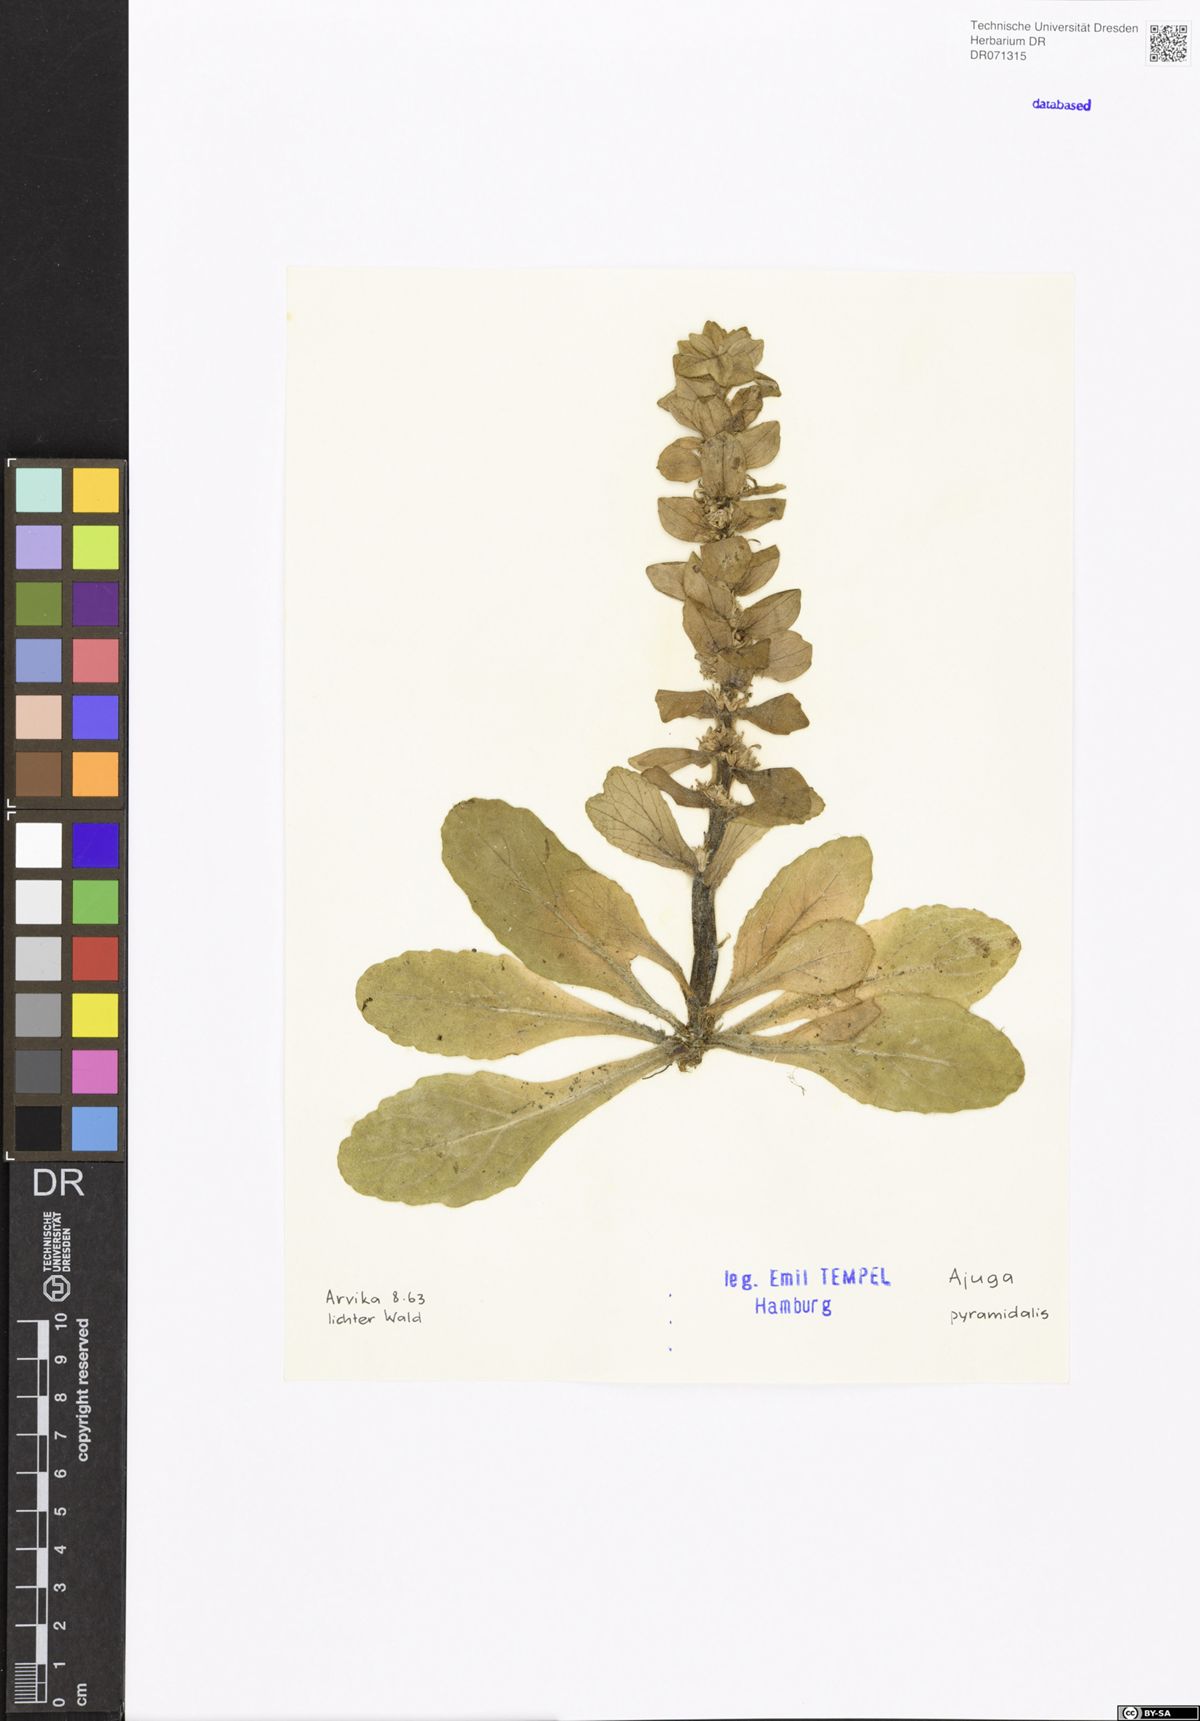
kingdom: Plantae
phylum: Tracheophyta
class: Magnoliopsida
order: Lamiales
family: Lamiaceae
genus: Ajuga
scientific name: Ajuga pyramidalis
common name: Pyramid bugle
